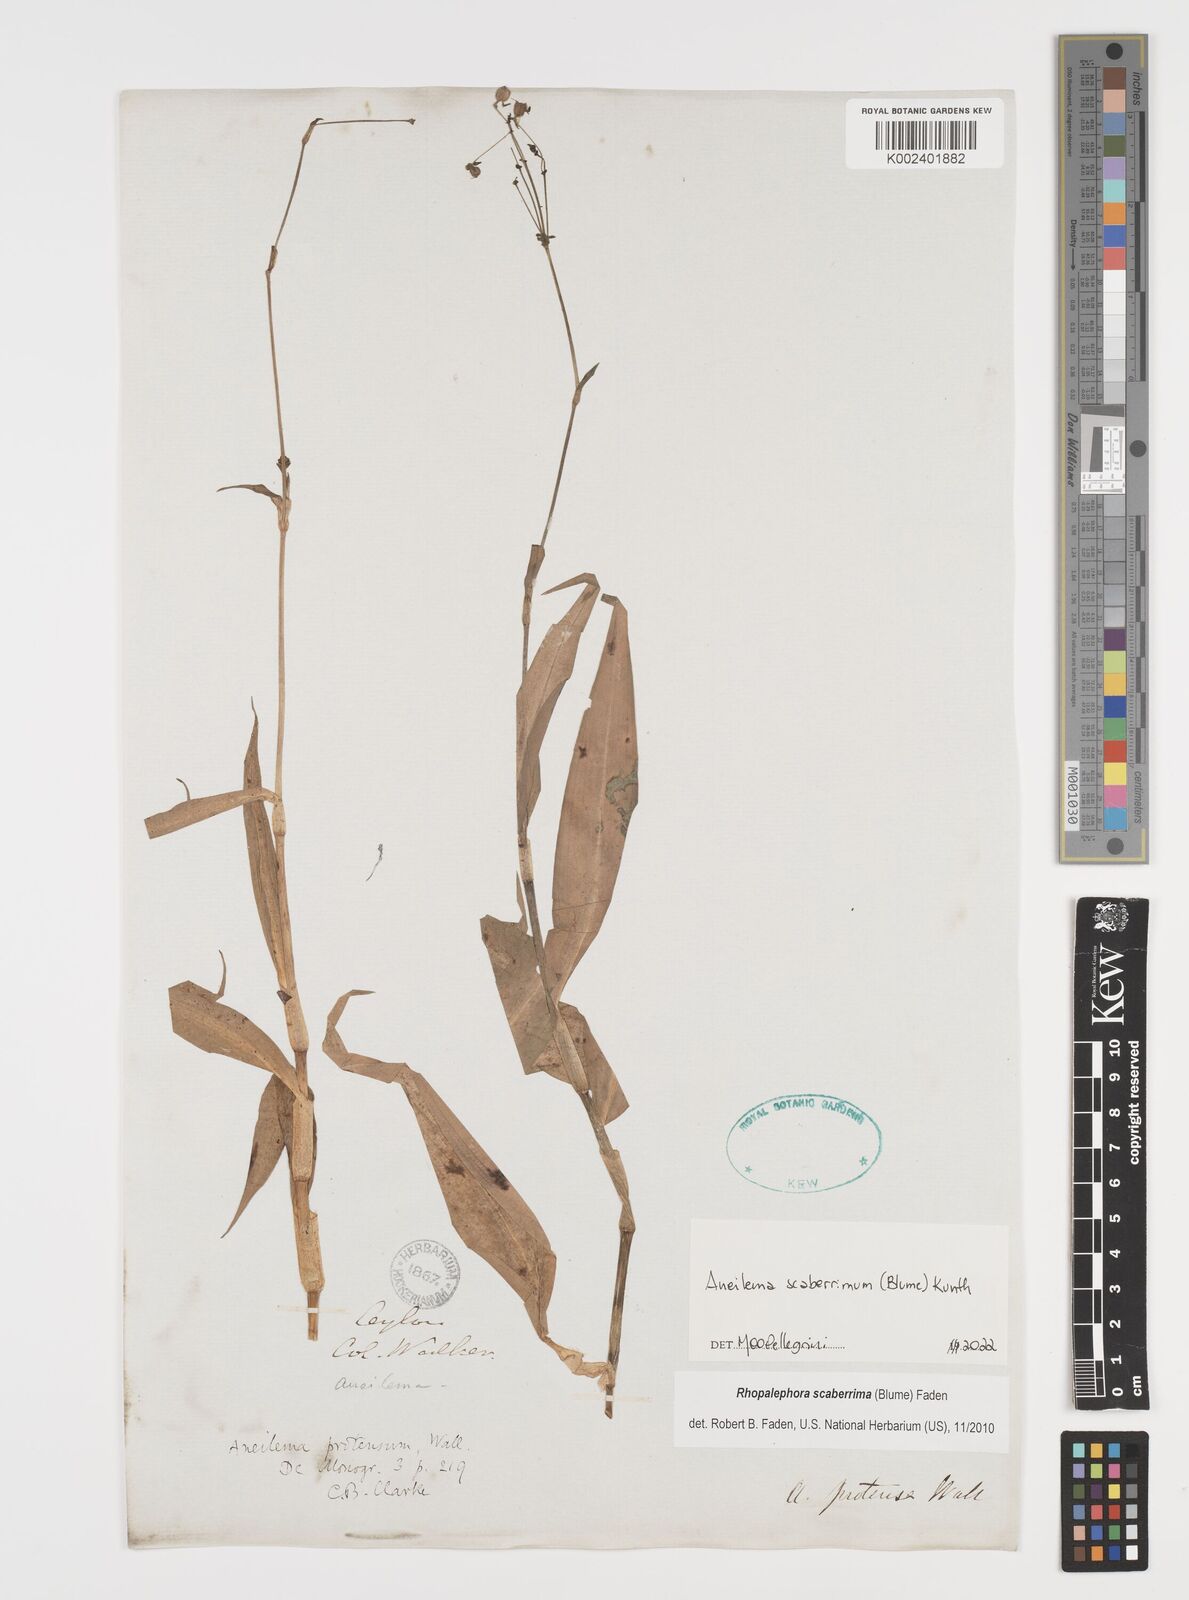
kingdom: Plantae
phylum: Tracheophyta
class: Liliopsida
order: Commelinales
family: Commelinaceae
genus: Rhopalephora
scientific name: Rhopalephora scaberrima
